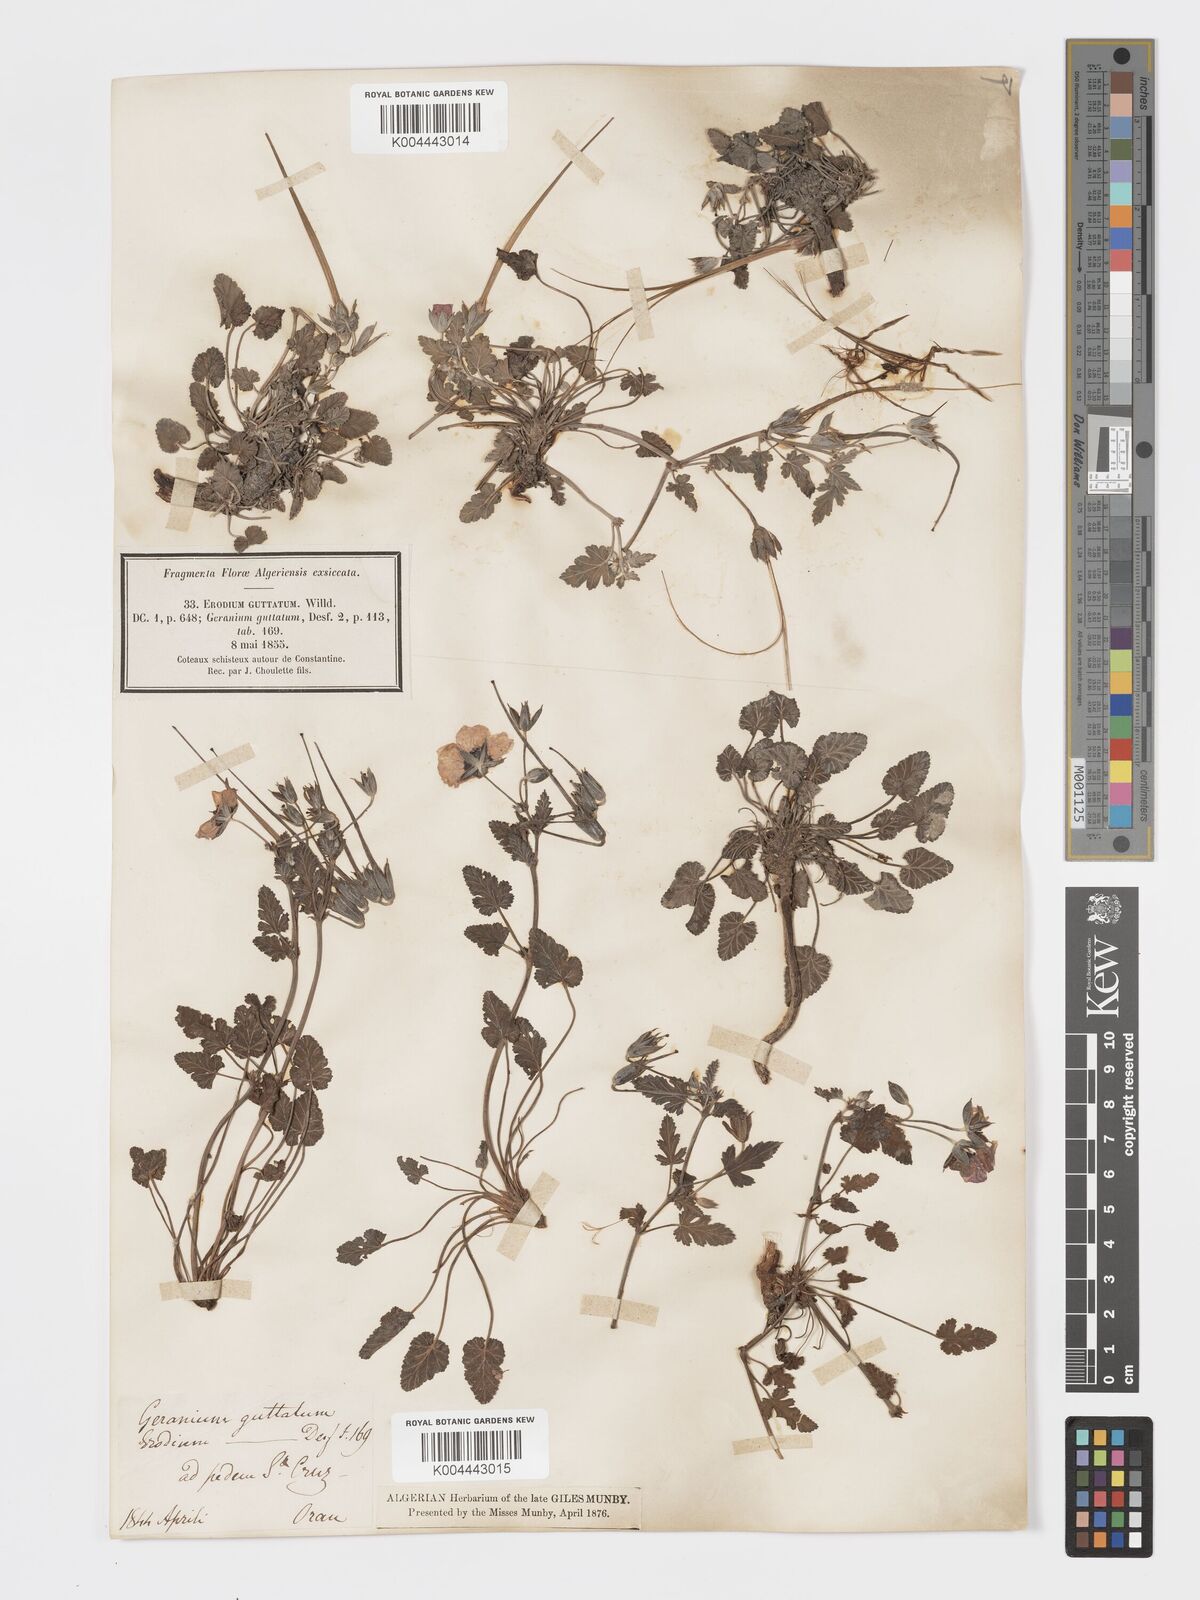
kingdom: Plantae
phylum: Tracheophyta
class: Magnoliopsida
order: Geraniales
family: Geraniaceae
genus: Erodium
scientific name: Erodium guttatum
